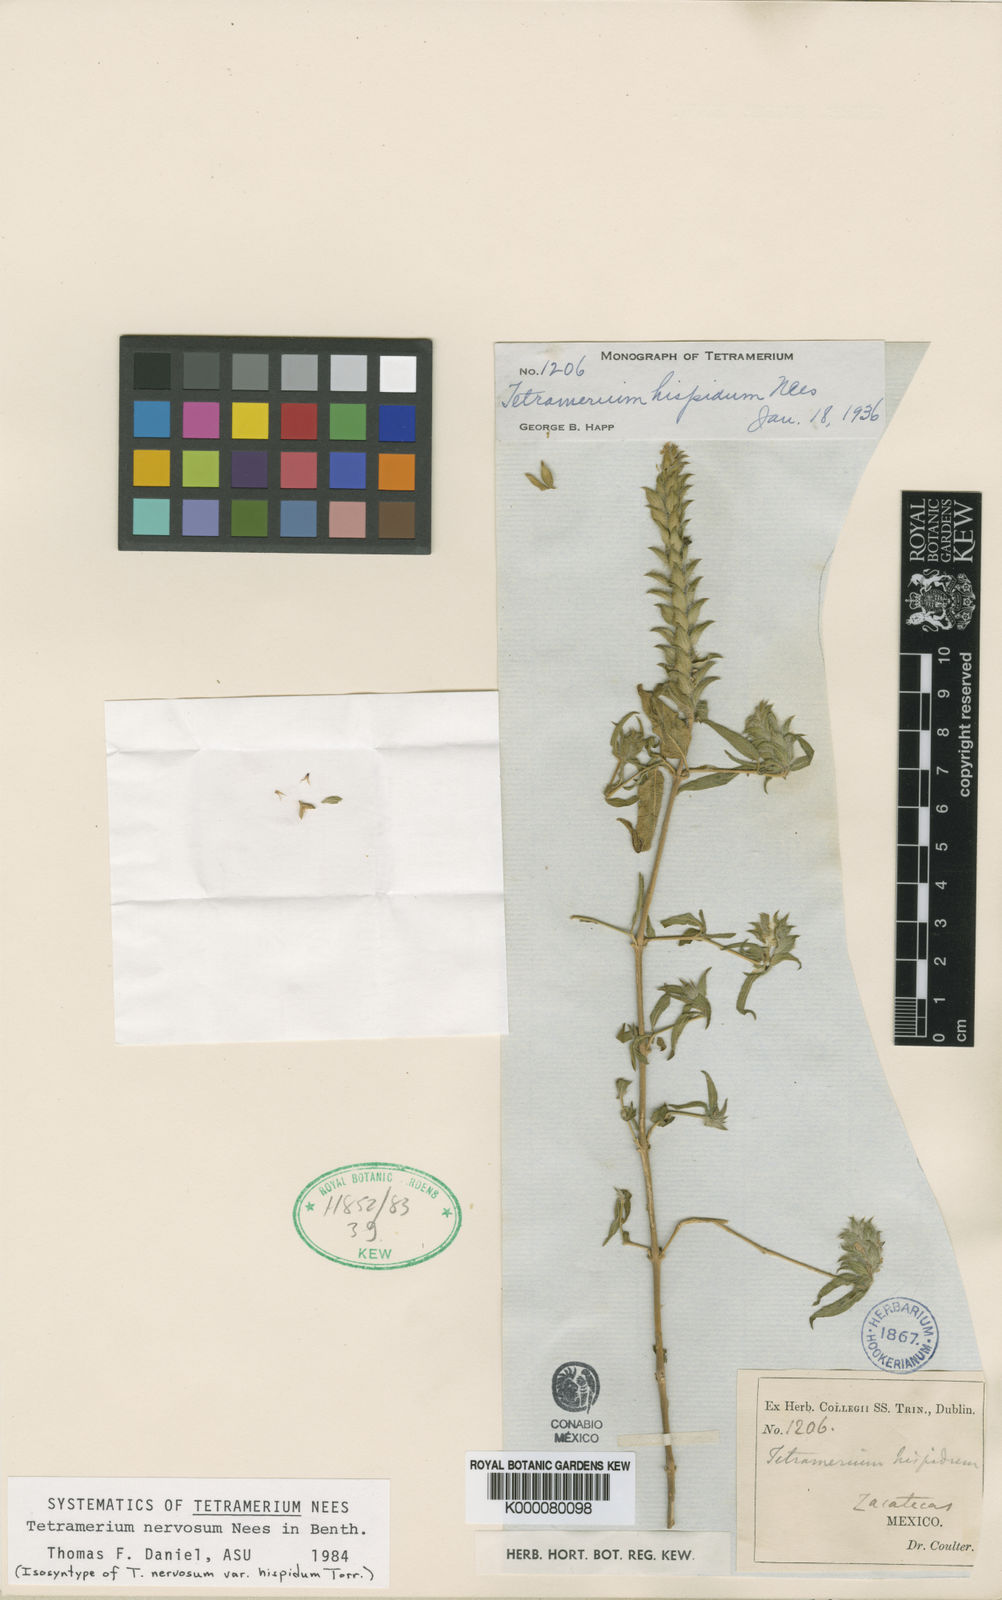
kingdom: Plantae
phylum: Tracheophyta
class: Magnoliopsida
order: Lamiales
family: Acanthaceae
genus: Tetramerium
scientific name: Tetramerium nervosum
